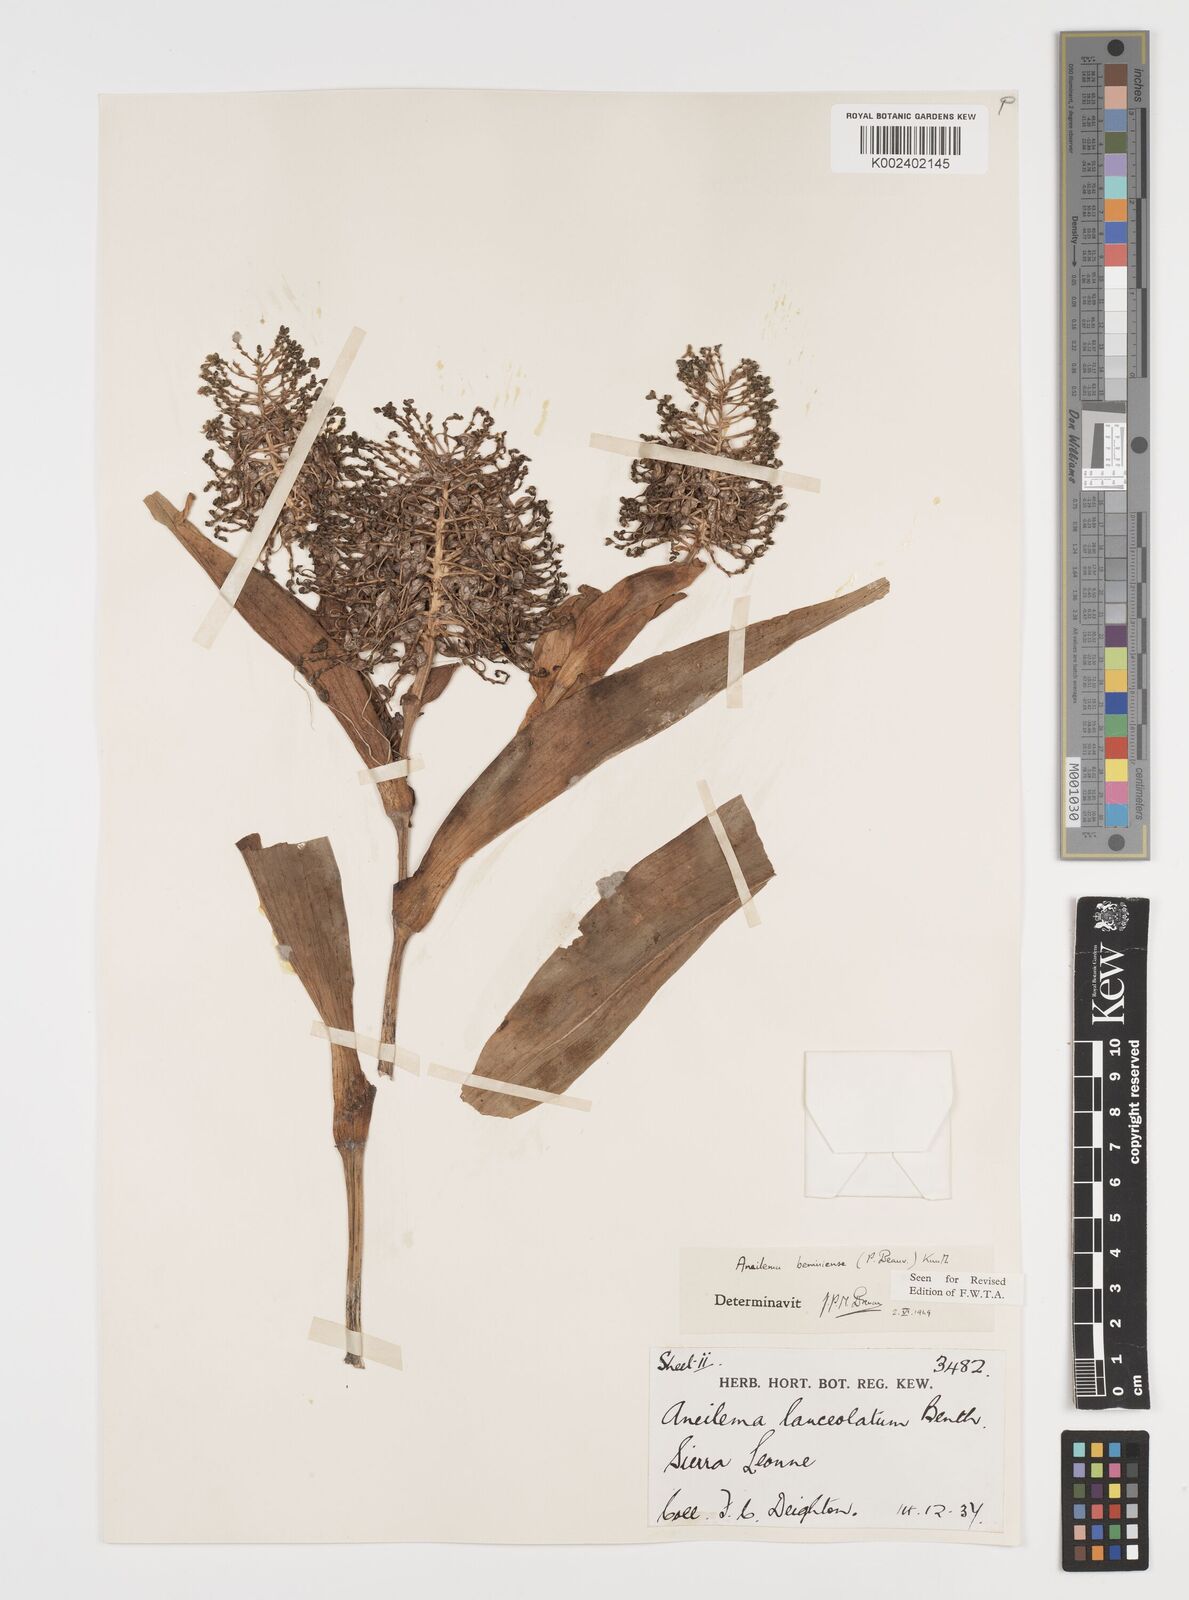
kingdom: Plantae
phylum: Tracheophyta
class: Liliopsida
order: Commelinales
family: Commelinaceae
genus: Aneilema
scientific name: Aneilema beniniense
